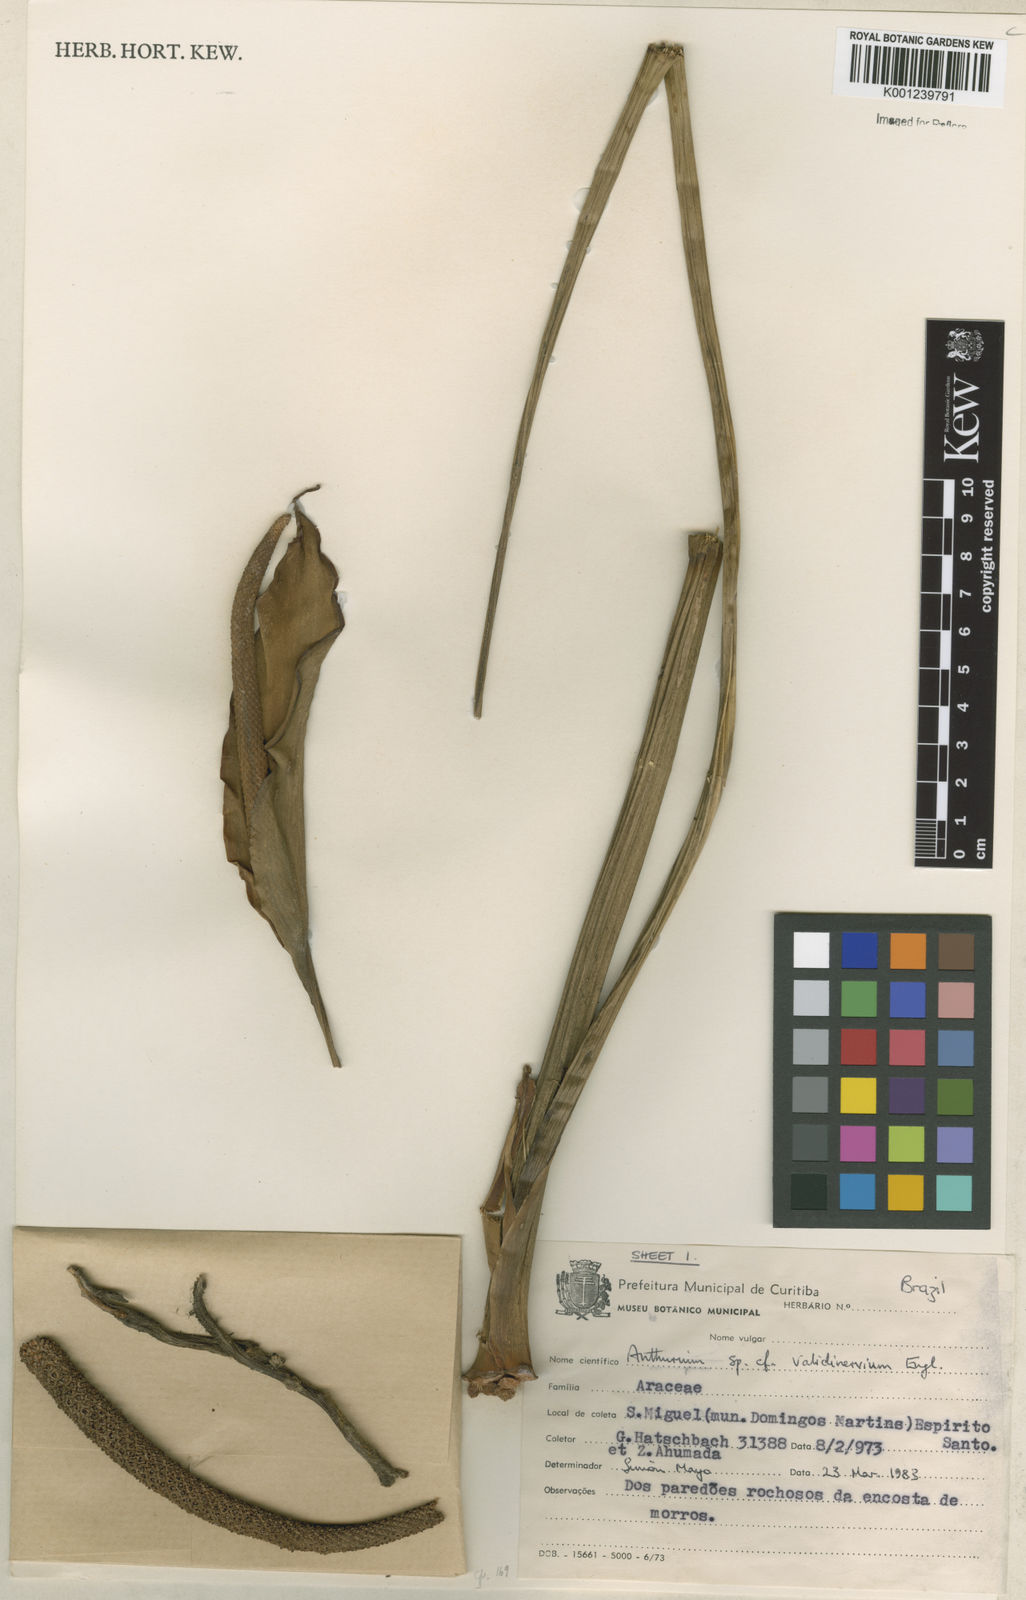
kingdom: Plantae
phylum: Tracheophyta
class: Liliopsida
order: Alismatales
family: Araceae
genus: Anthurium
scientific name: Anthurium
